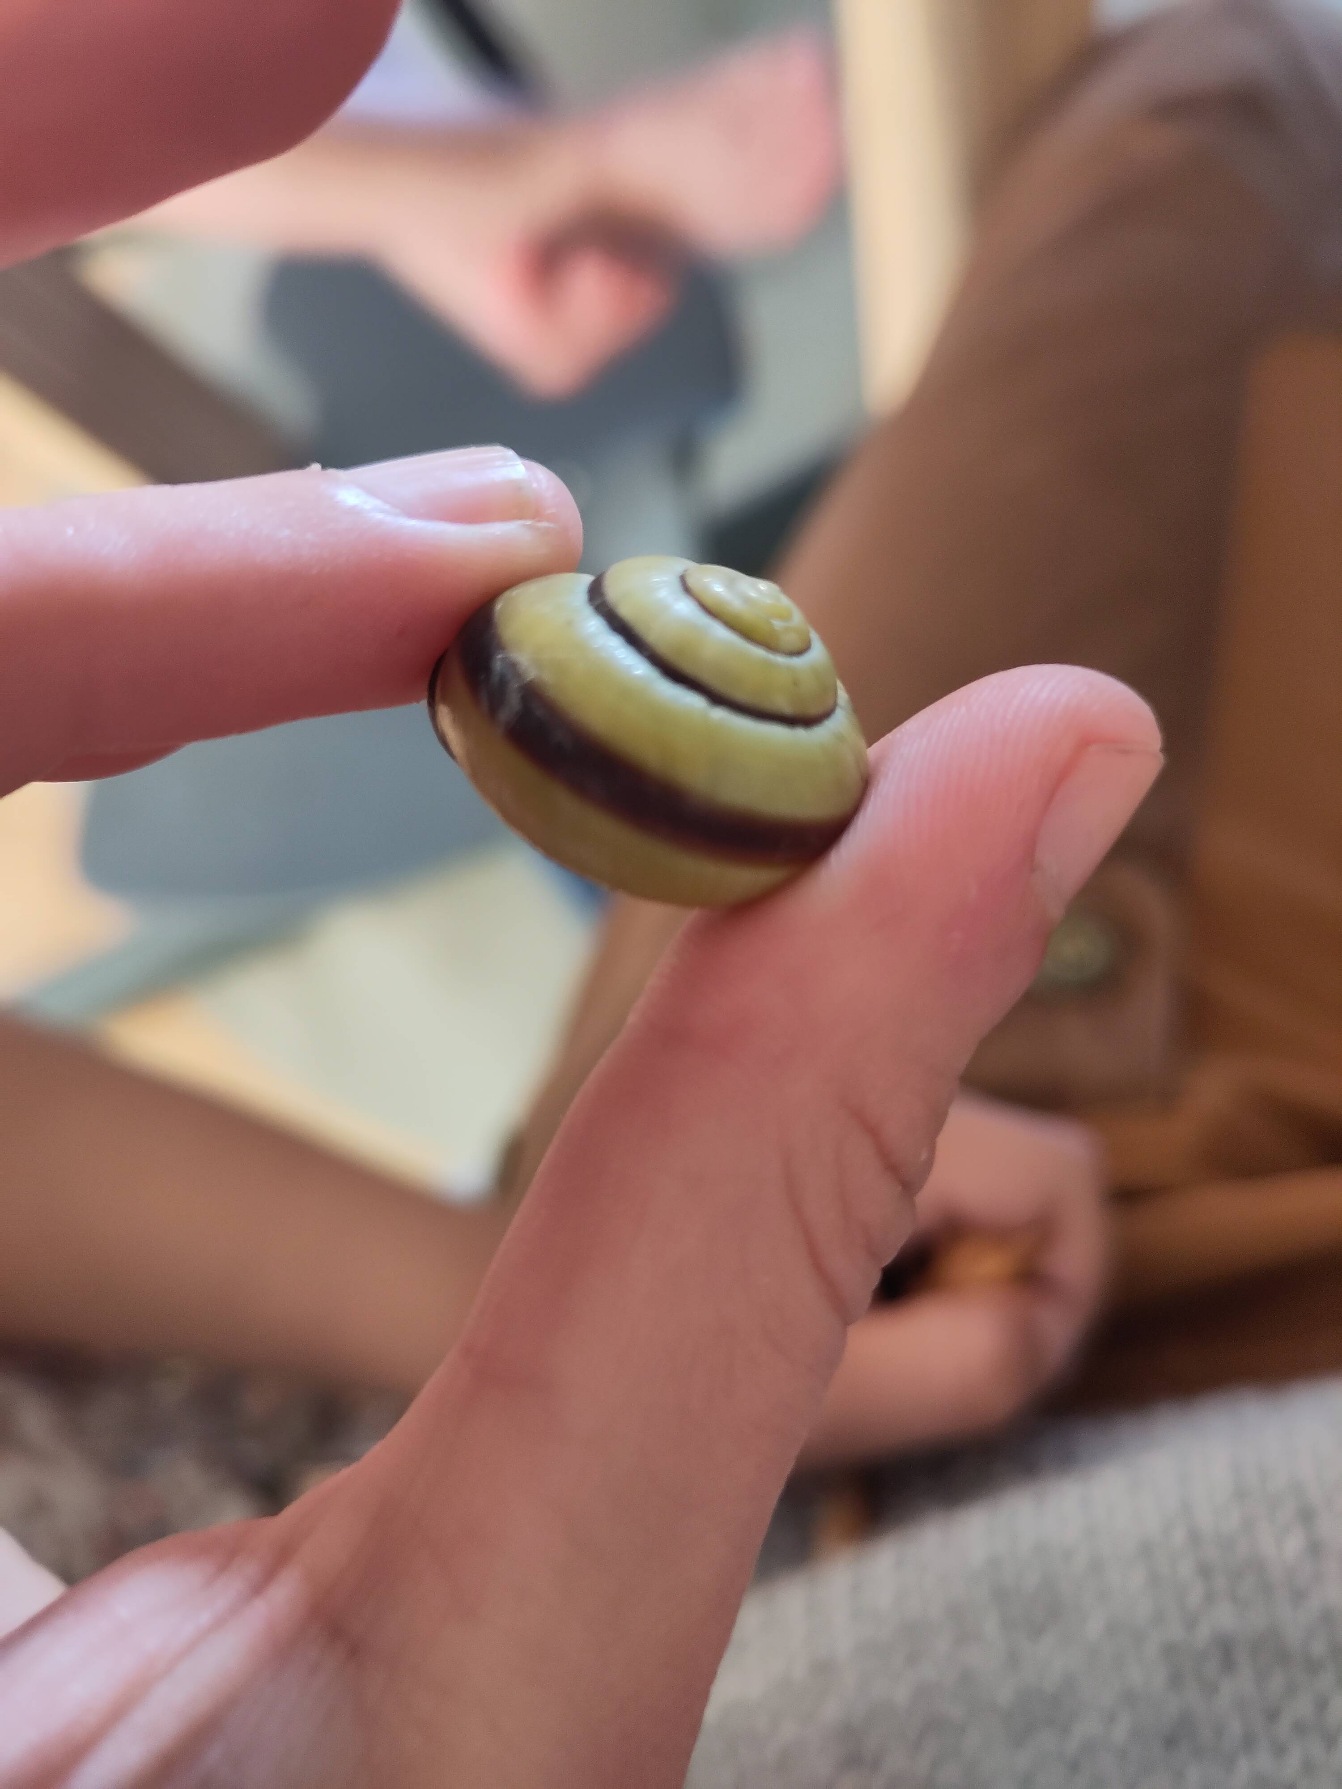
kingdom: Animalia
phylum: Mollusca
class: Gastropoda
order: Stylommatophora
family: Helicidae
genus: Cepaea
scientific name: Cepaea nemoralis
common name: Lundsnegl
